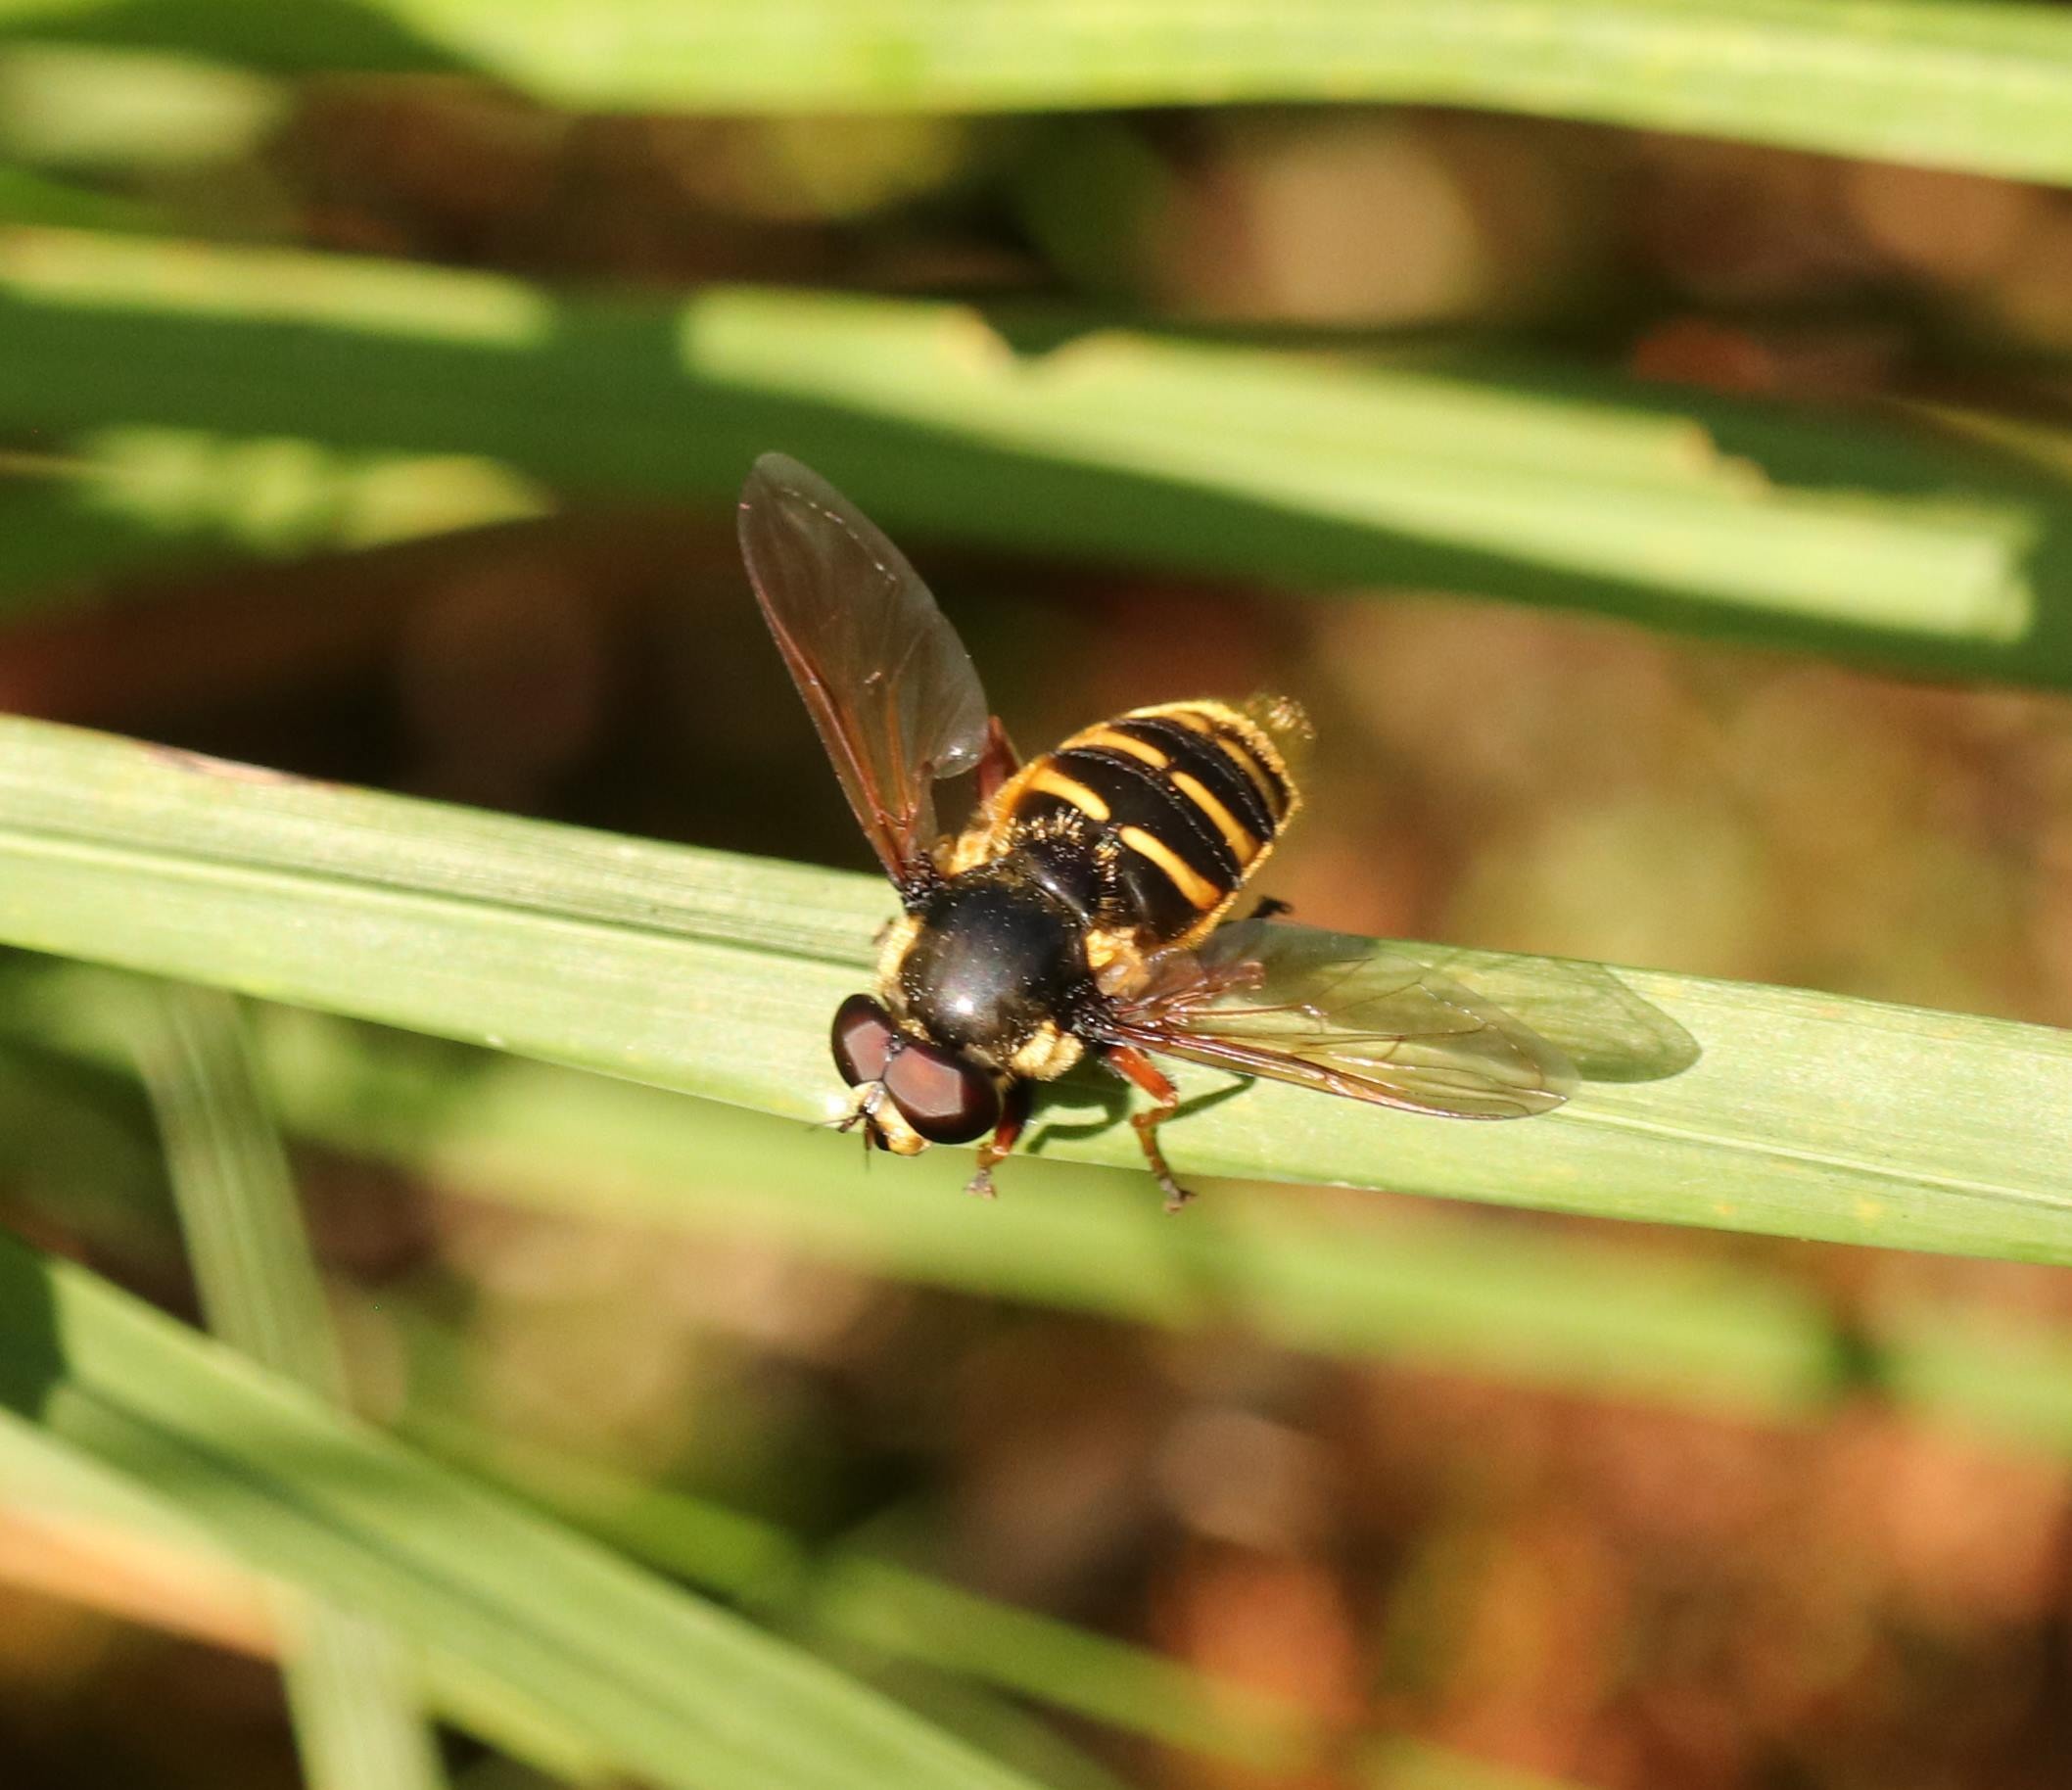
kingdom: Animalia
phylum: Arthropoda
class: Insecta
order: Diptera
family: Syrphidae
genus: Sericomyia
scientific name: Sericomyia silentis
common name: Tørve-silkesvirreflue
